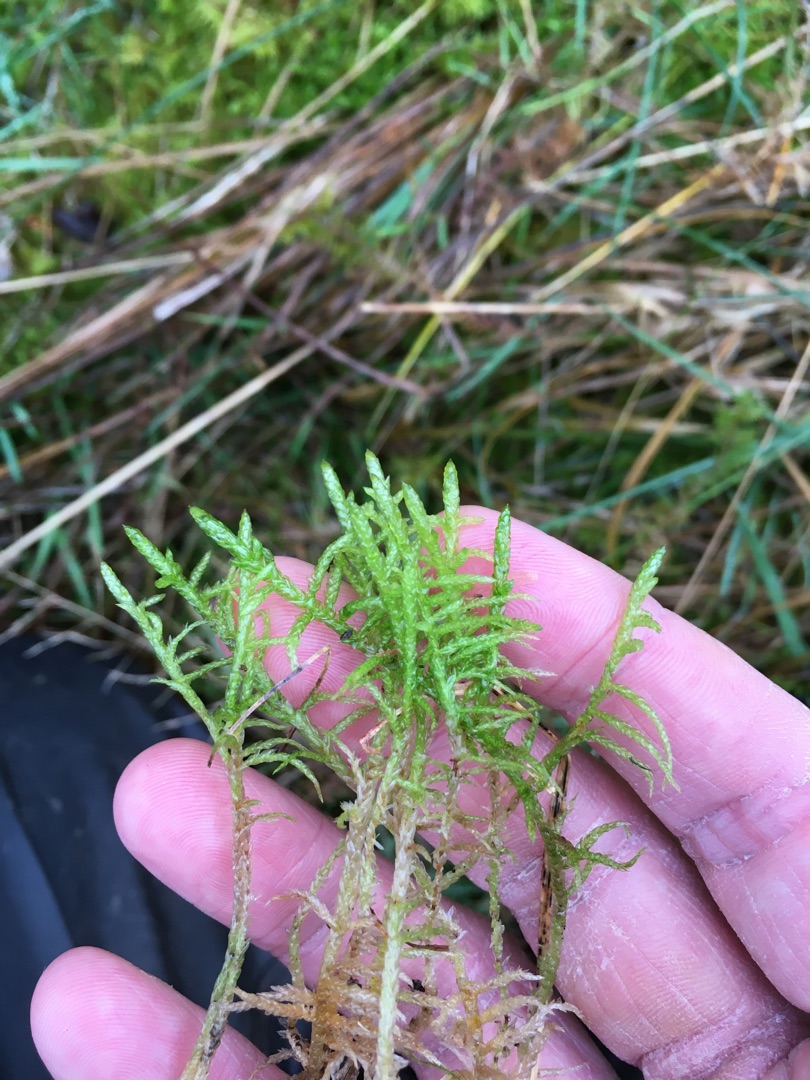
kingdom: Plantae
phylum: Bryophyta
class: Bryopsida
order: Hypnales
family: Brachytheciaceae
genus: Pseudoscleropodium
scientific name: Pseudoscleropodium purum
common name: Hulbladet fedtmos
